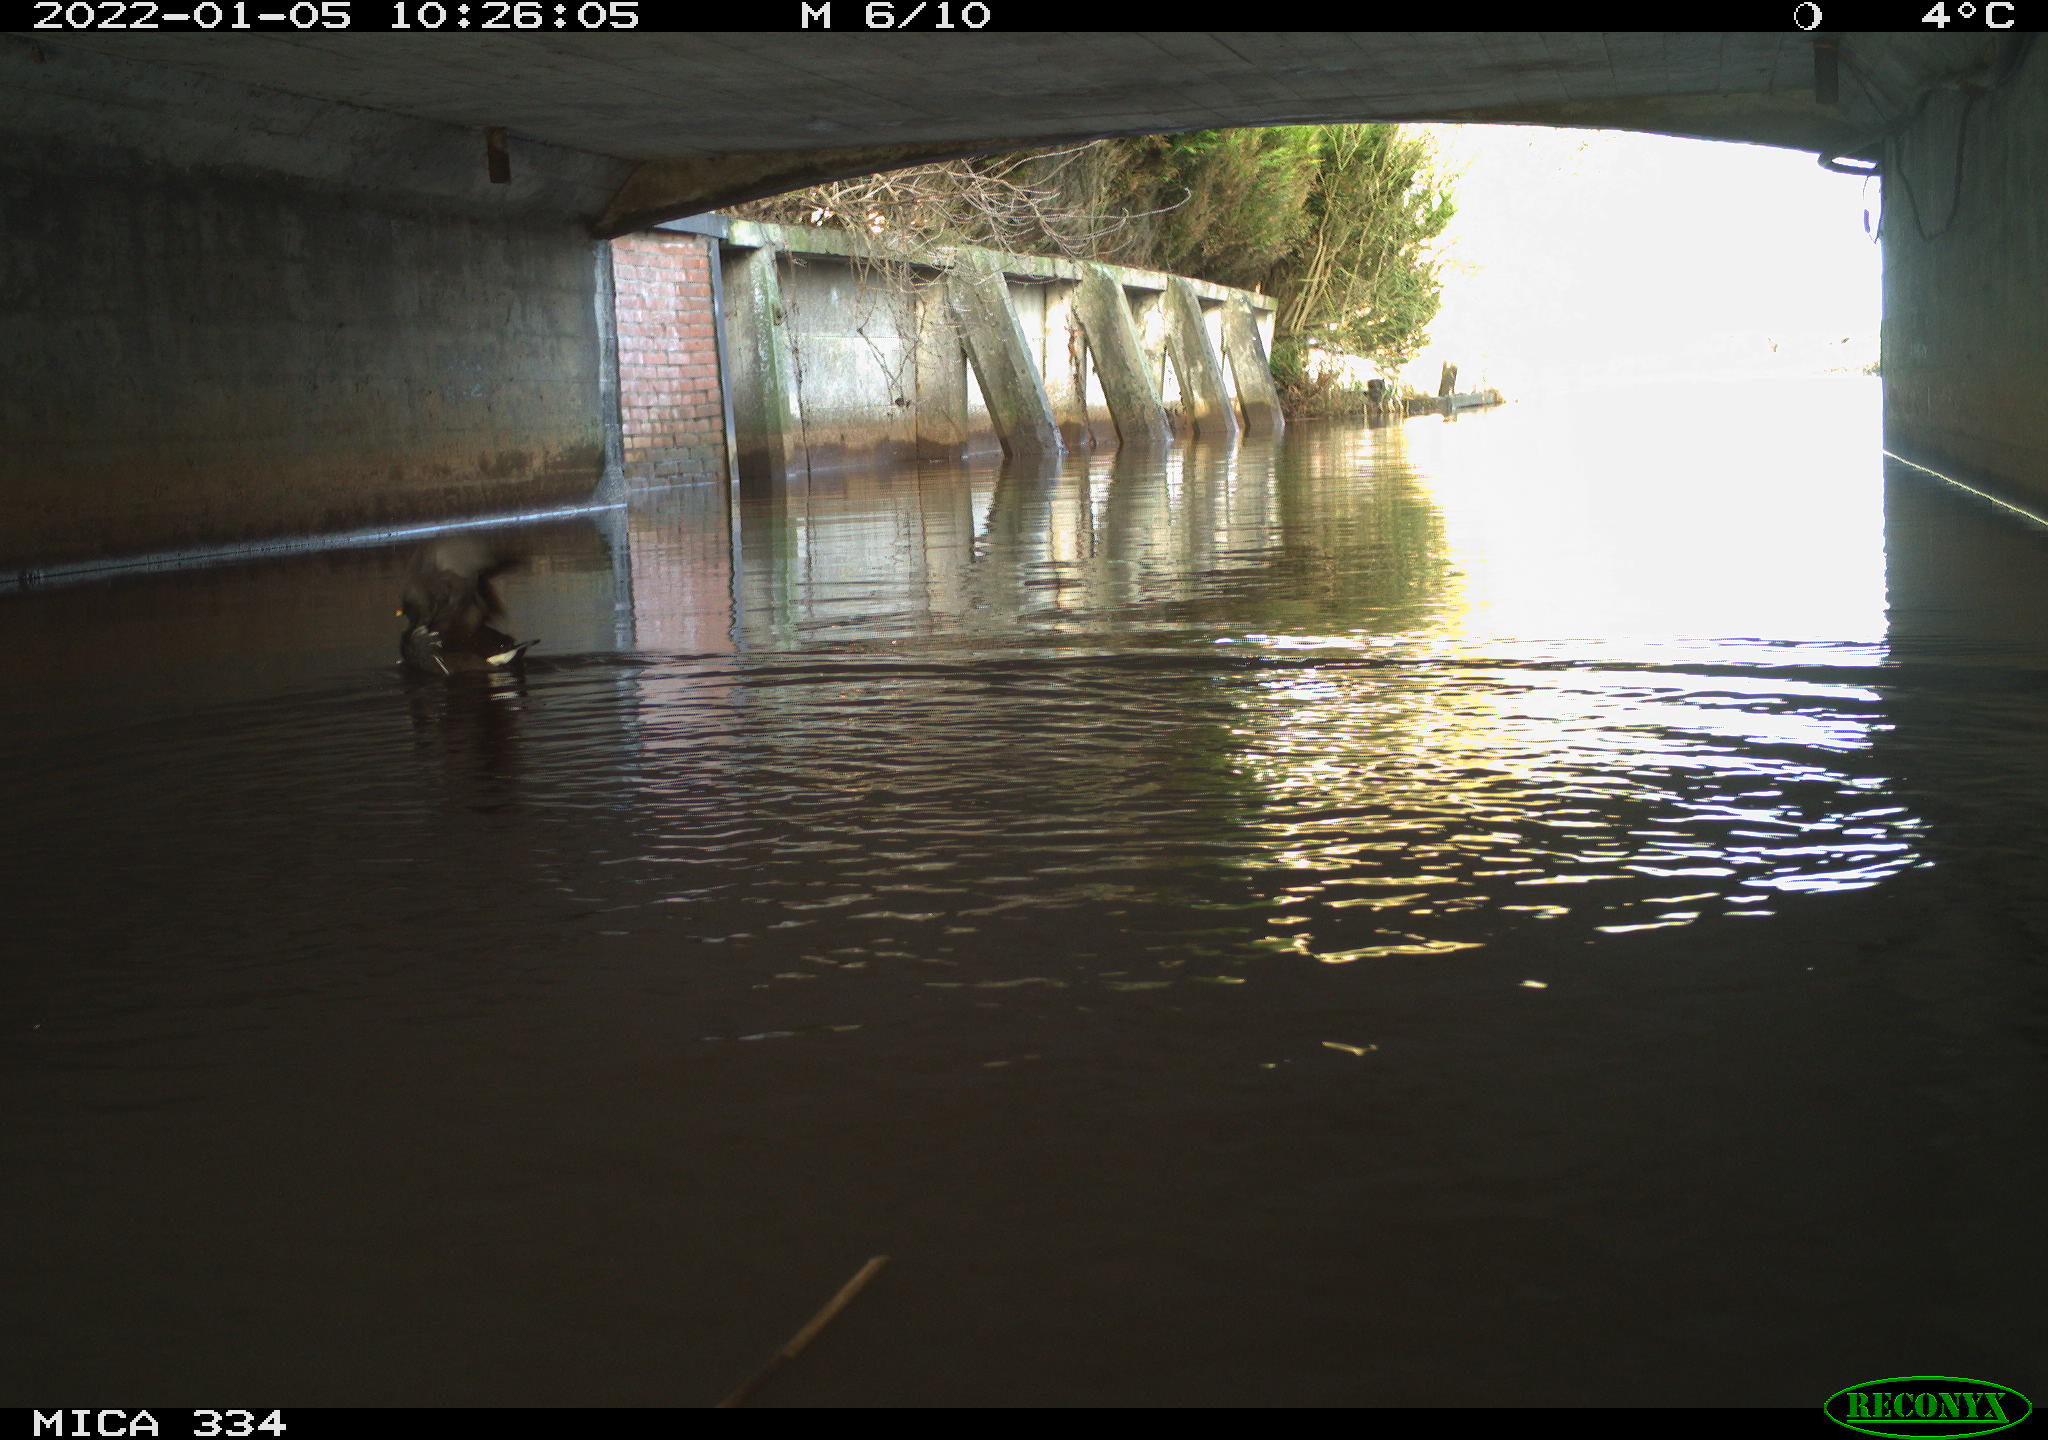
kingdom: Animalia
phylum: Chordata
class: Aves
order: Gruiformes
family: Rallidae
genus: Gallinula
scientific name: Gallinula chloropus
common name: Common moorhen
